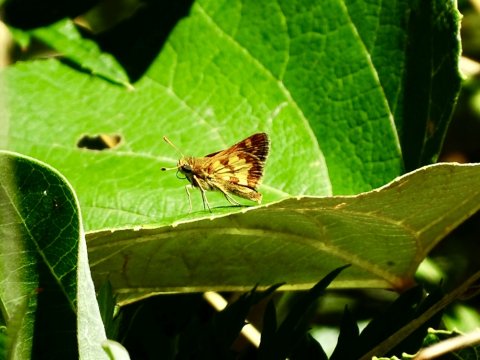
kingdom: Animalia
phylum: Arthropoda
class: Insecta
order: Lepidoptera
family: Hesperiidae
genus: Polites
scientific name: Polites coras
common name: Peck's Skipper
